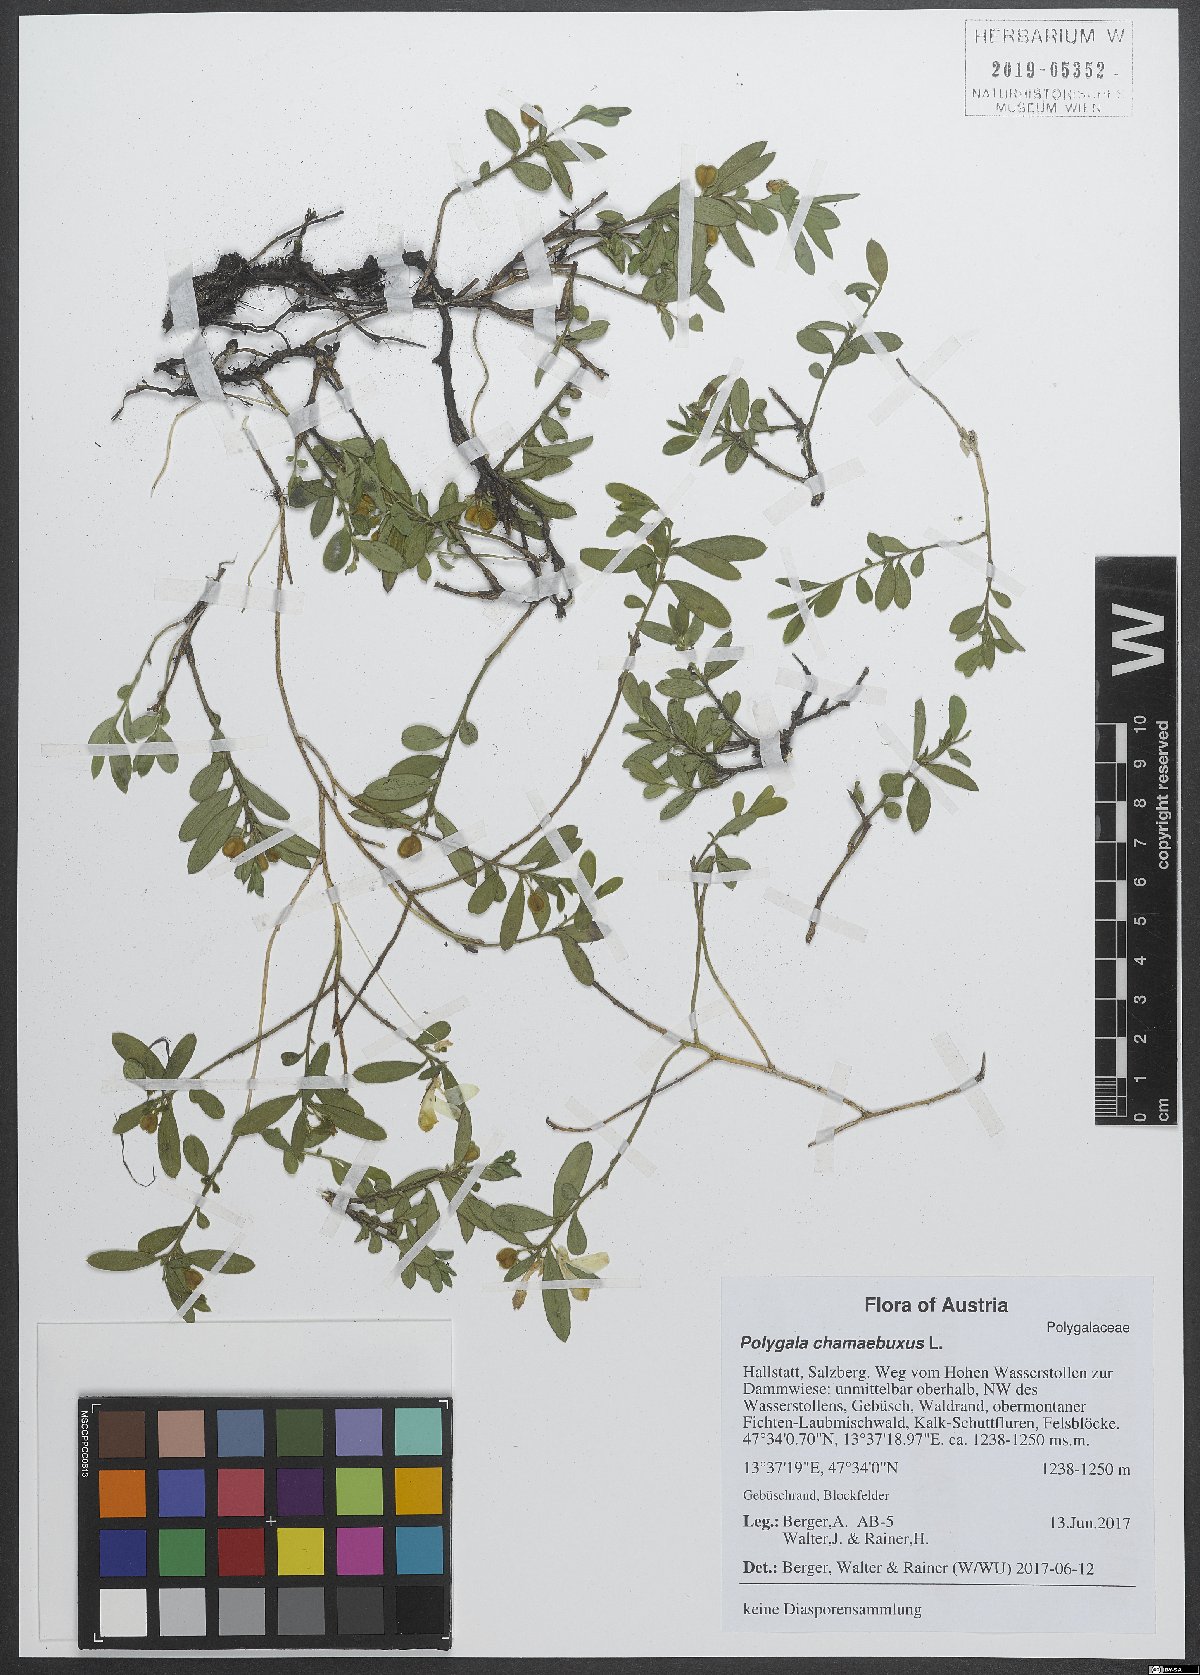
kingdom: Plantae
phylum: Tracheophyta
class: Magnoliopsida
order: Fabales
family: Polygalaceae
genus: Polygaloides
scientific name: Polygaloides chamaebuxus
